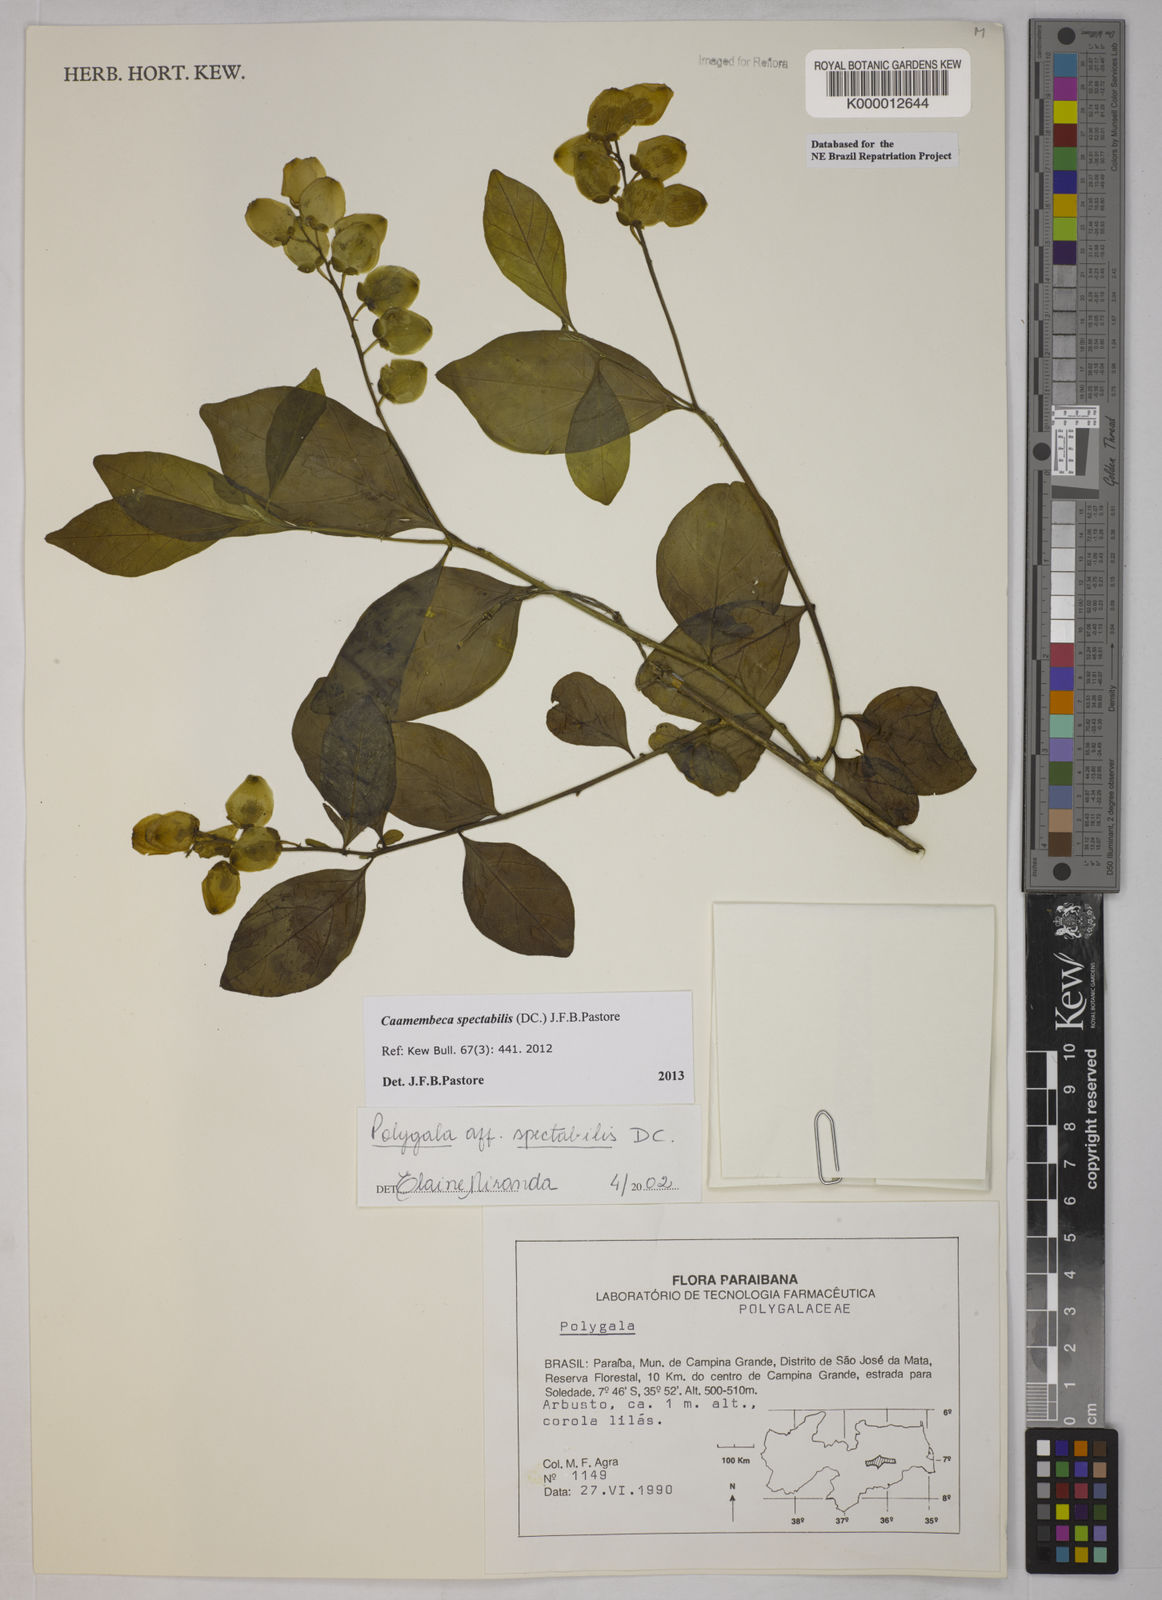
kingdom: Plantae
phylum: Tracheophyta
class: Magnoliopsida
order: Fabales
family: Polygalaceae
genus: Caamembeca
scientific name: Caamembeca spectabilis
